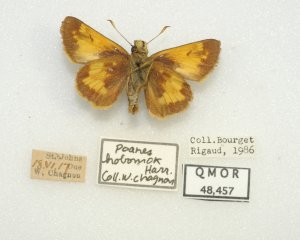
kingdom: Animalia
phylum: Arthropoda
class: Insecta
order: Lepidoptera
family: Hesperiidae
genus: Lon
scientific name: Lon hobomok
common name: Hobomok Skipper
